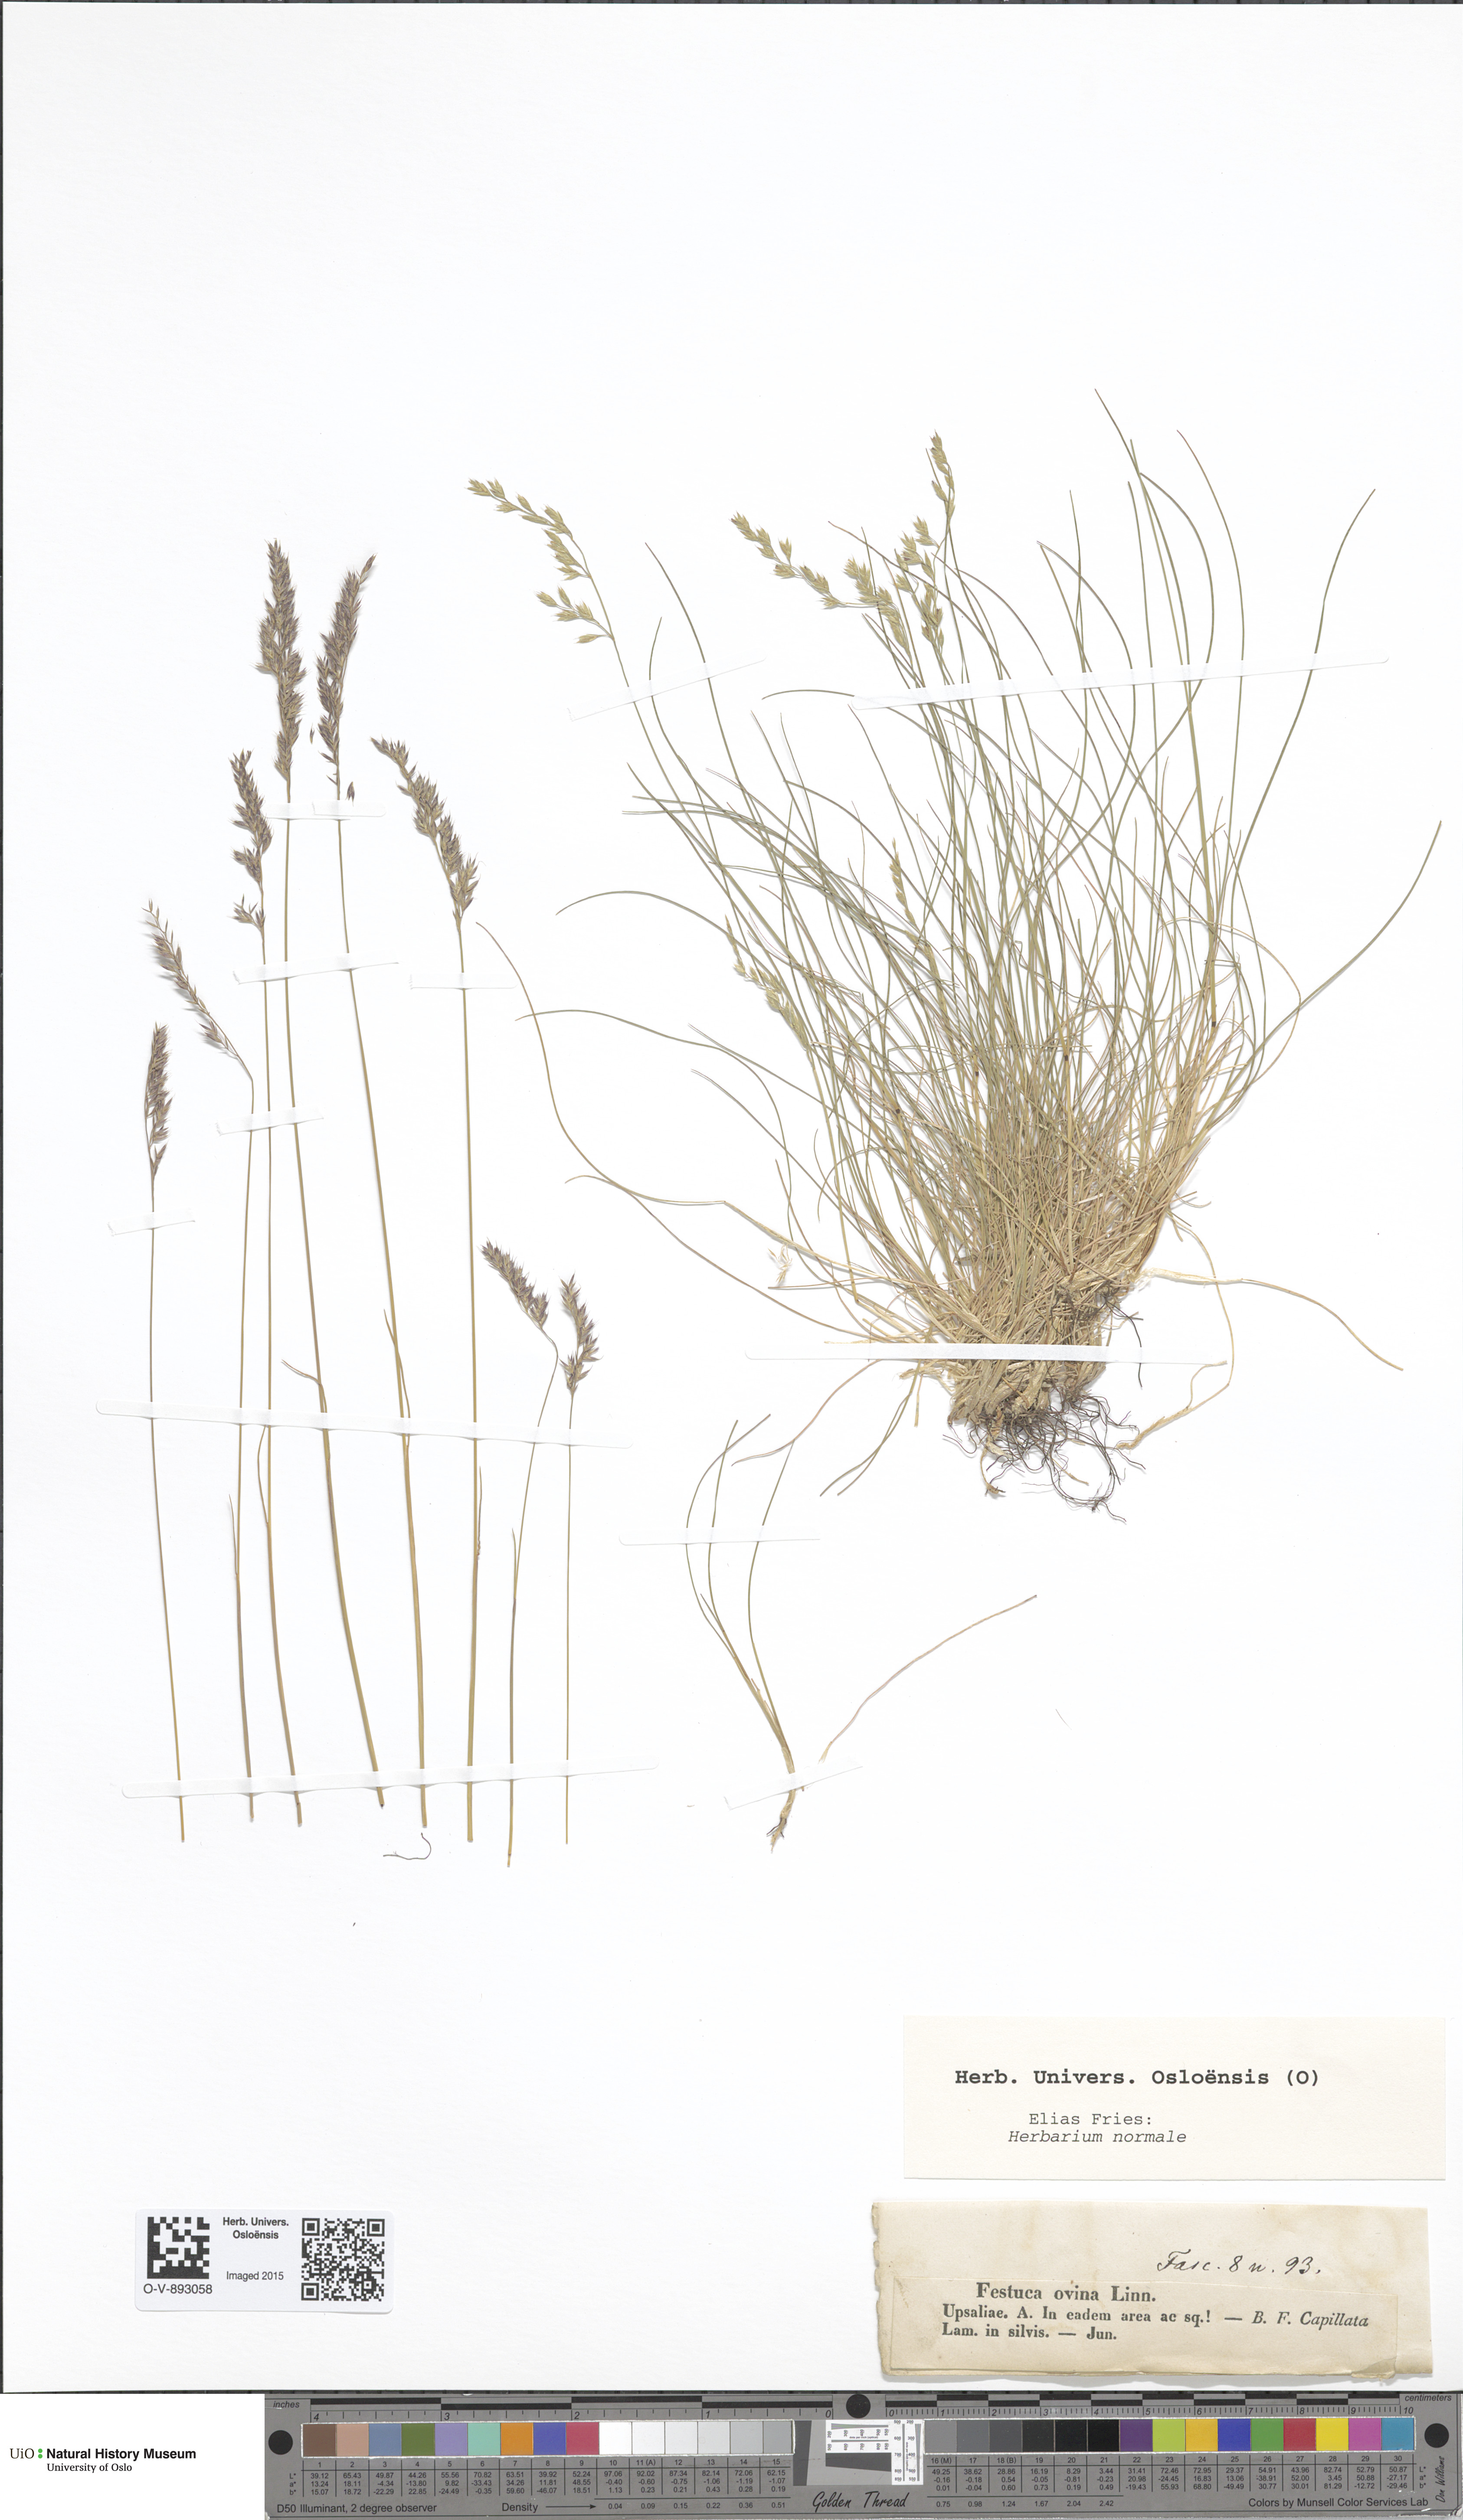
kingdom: Plantae
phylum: Tracheophyta
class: Liliopsida
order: Poales
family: Poaceae
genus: Festuca
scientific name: Festuca ovina
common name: Sheep fescue
